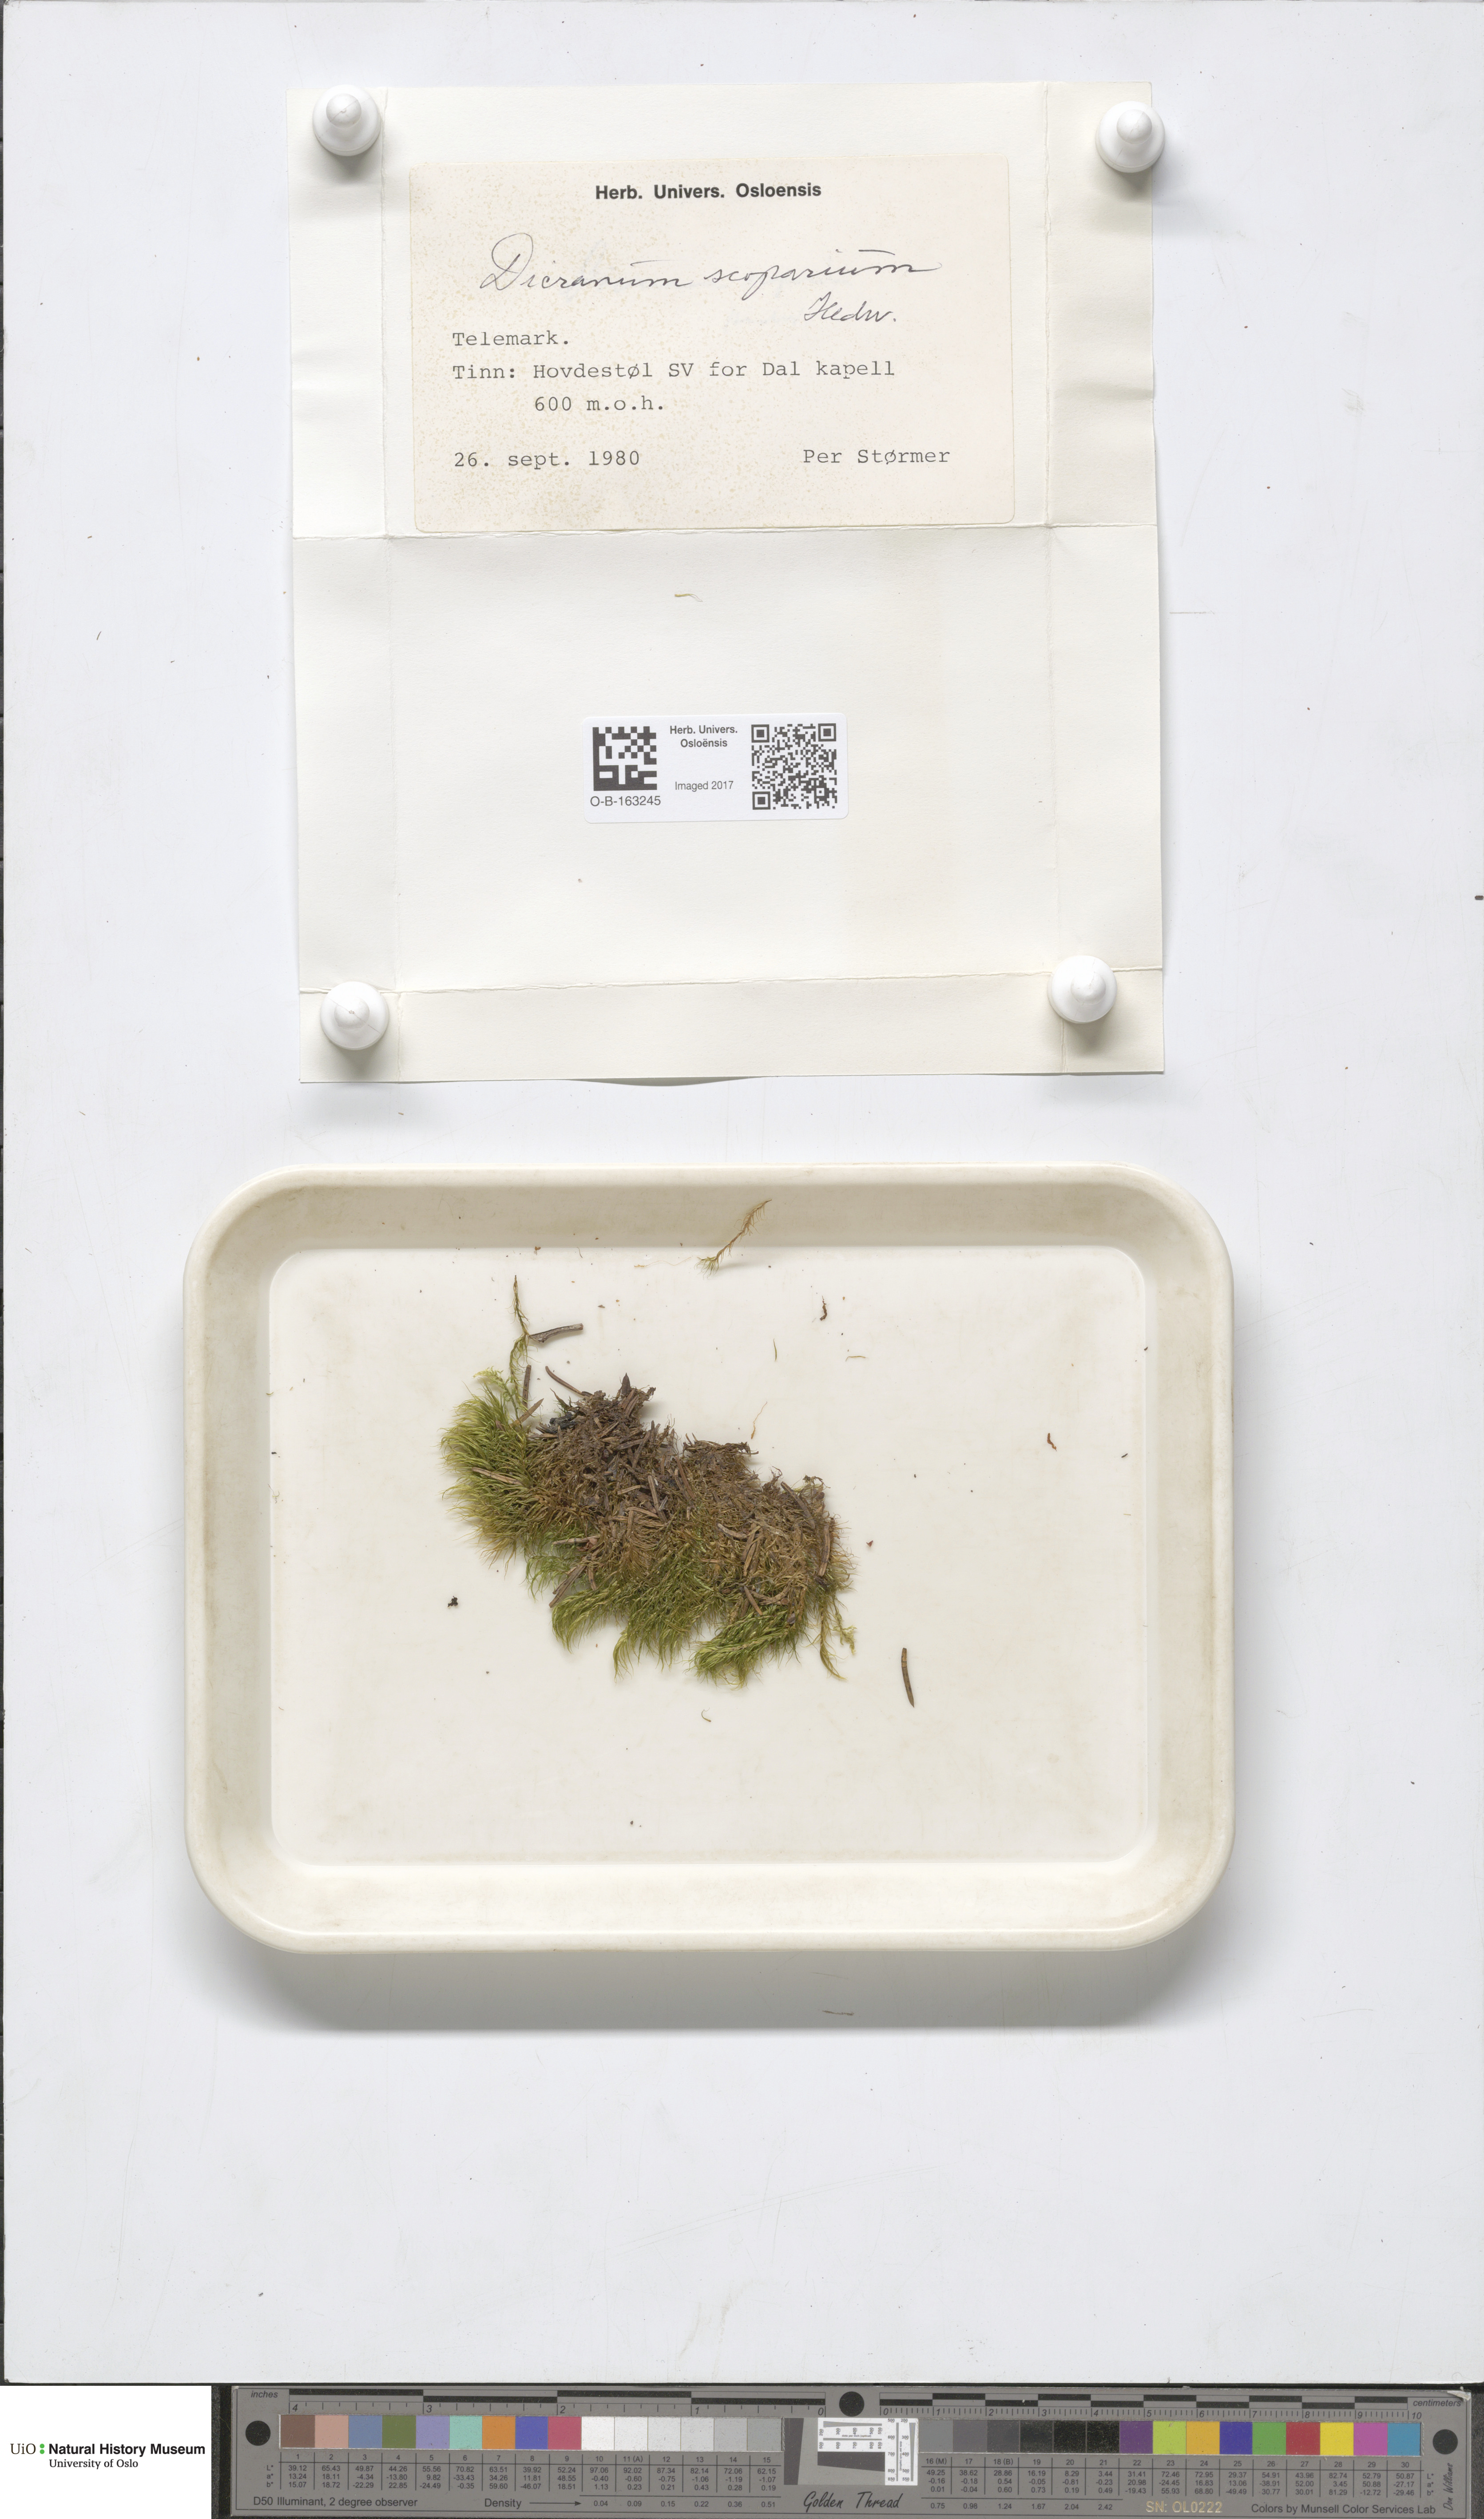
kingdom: Plantae
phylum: Bryophyta
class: Bryopsida
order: Dicranales
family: Dicranaceae
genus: Dicranum
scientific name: Dicranum scoparium
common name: Broom fork-moss
